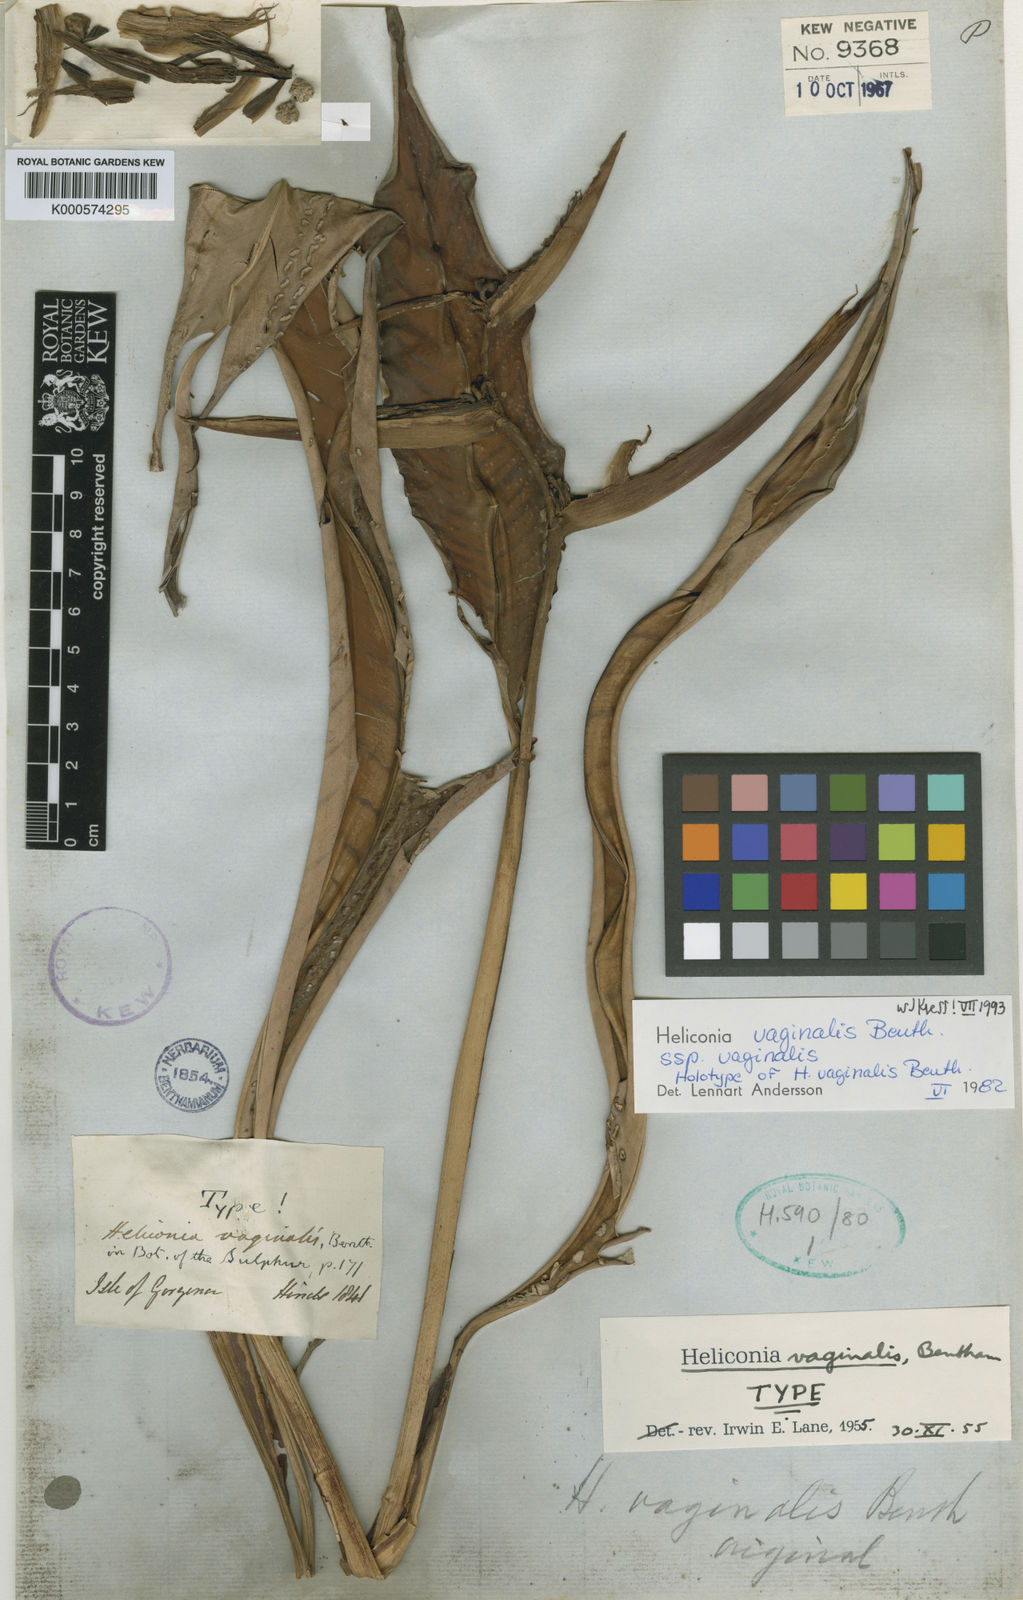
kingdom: Plantae
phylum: Tracheophyta
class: Liliopsida
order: Zingiberales
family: Heliconiaceae
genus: Heliconia
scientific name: Heliconia vaginalis
